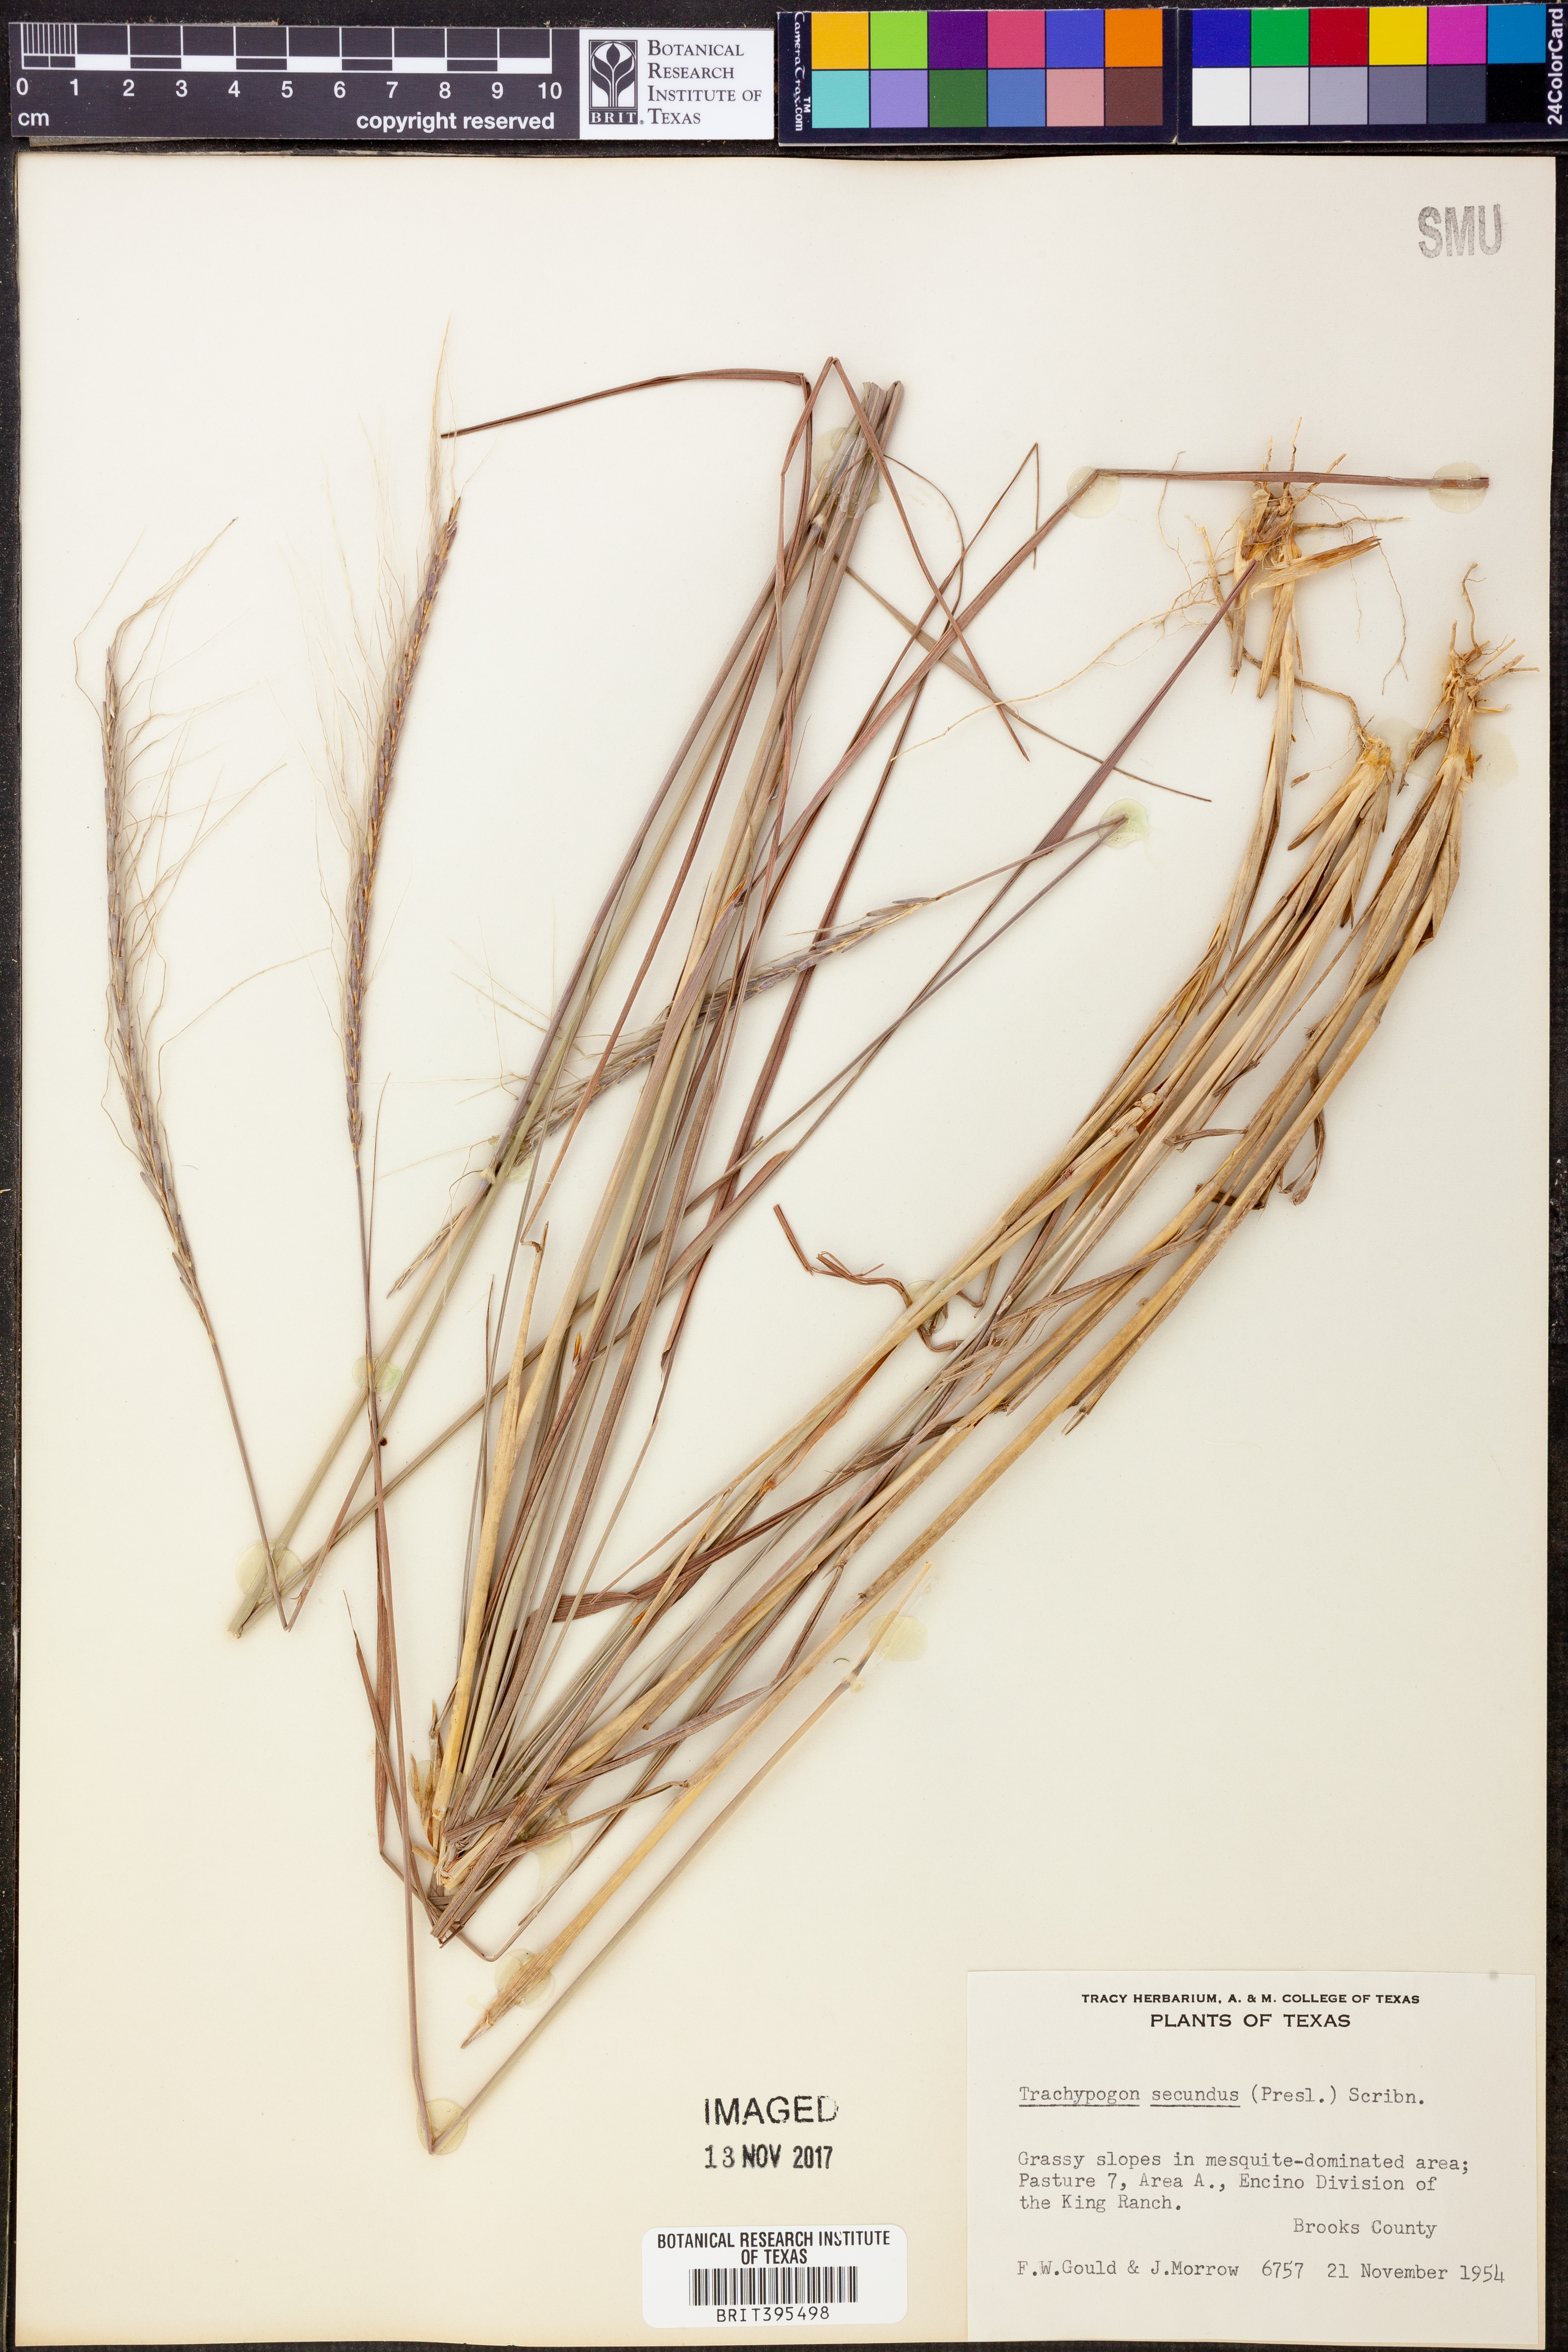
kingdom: Plantae
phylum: Tracheophyta
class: Liliopsida
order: Poales
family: Poaceae
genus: Trachypogon
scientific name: Trachypogon spicatus
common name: Crinkle-awn
